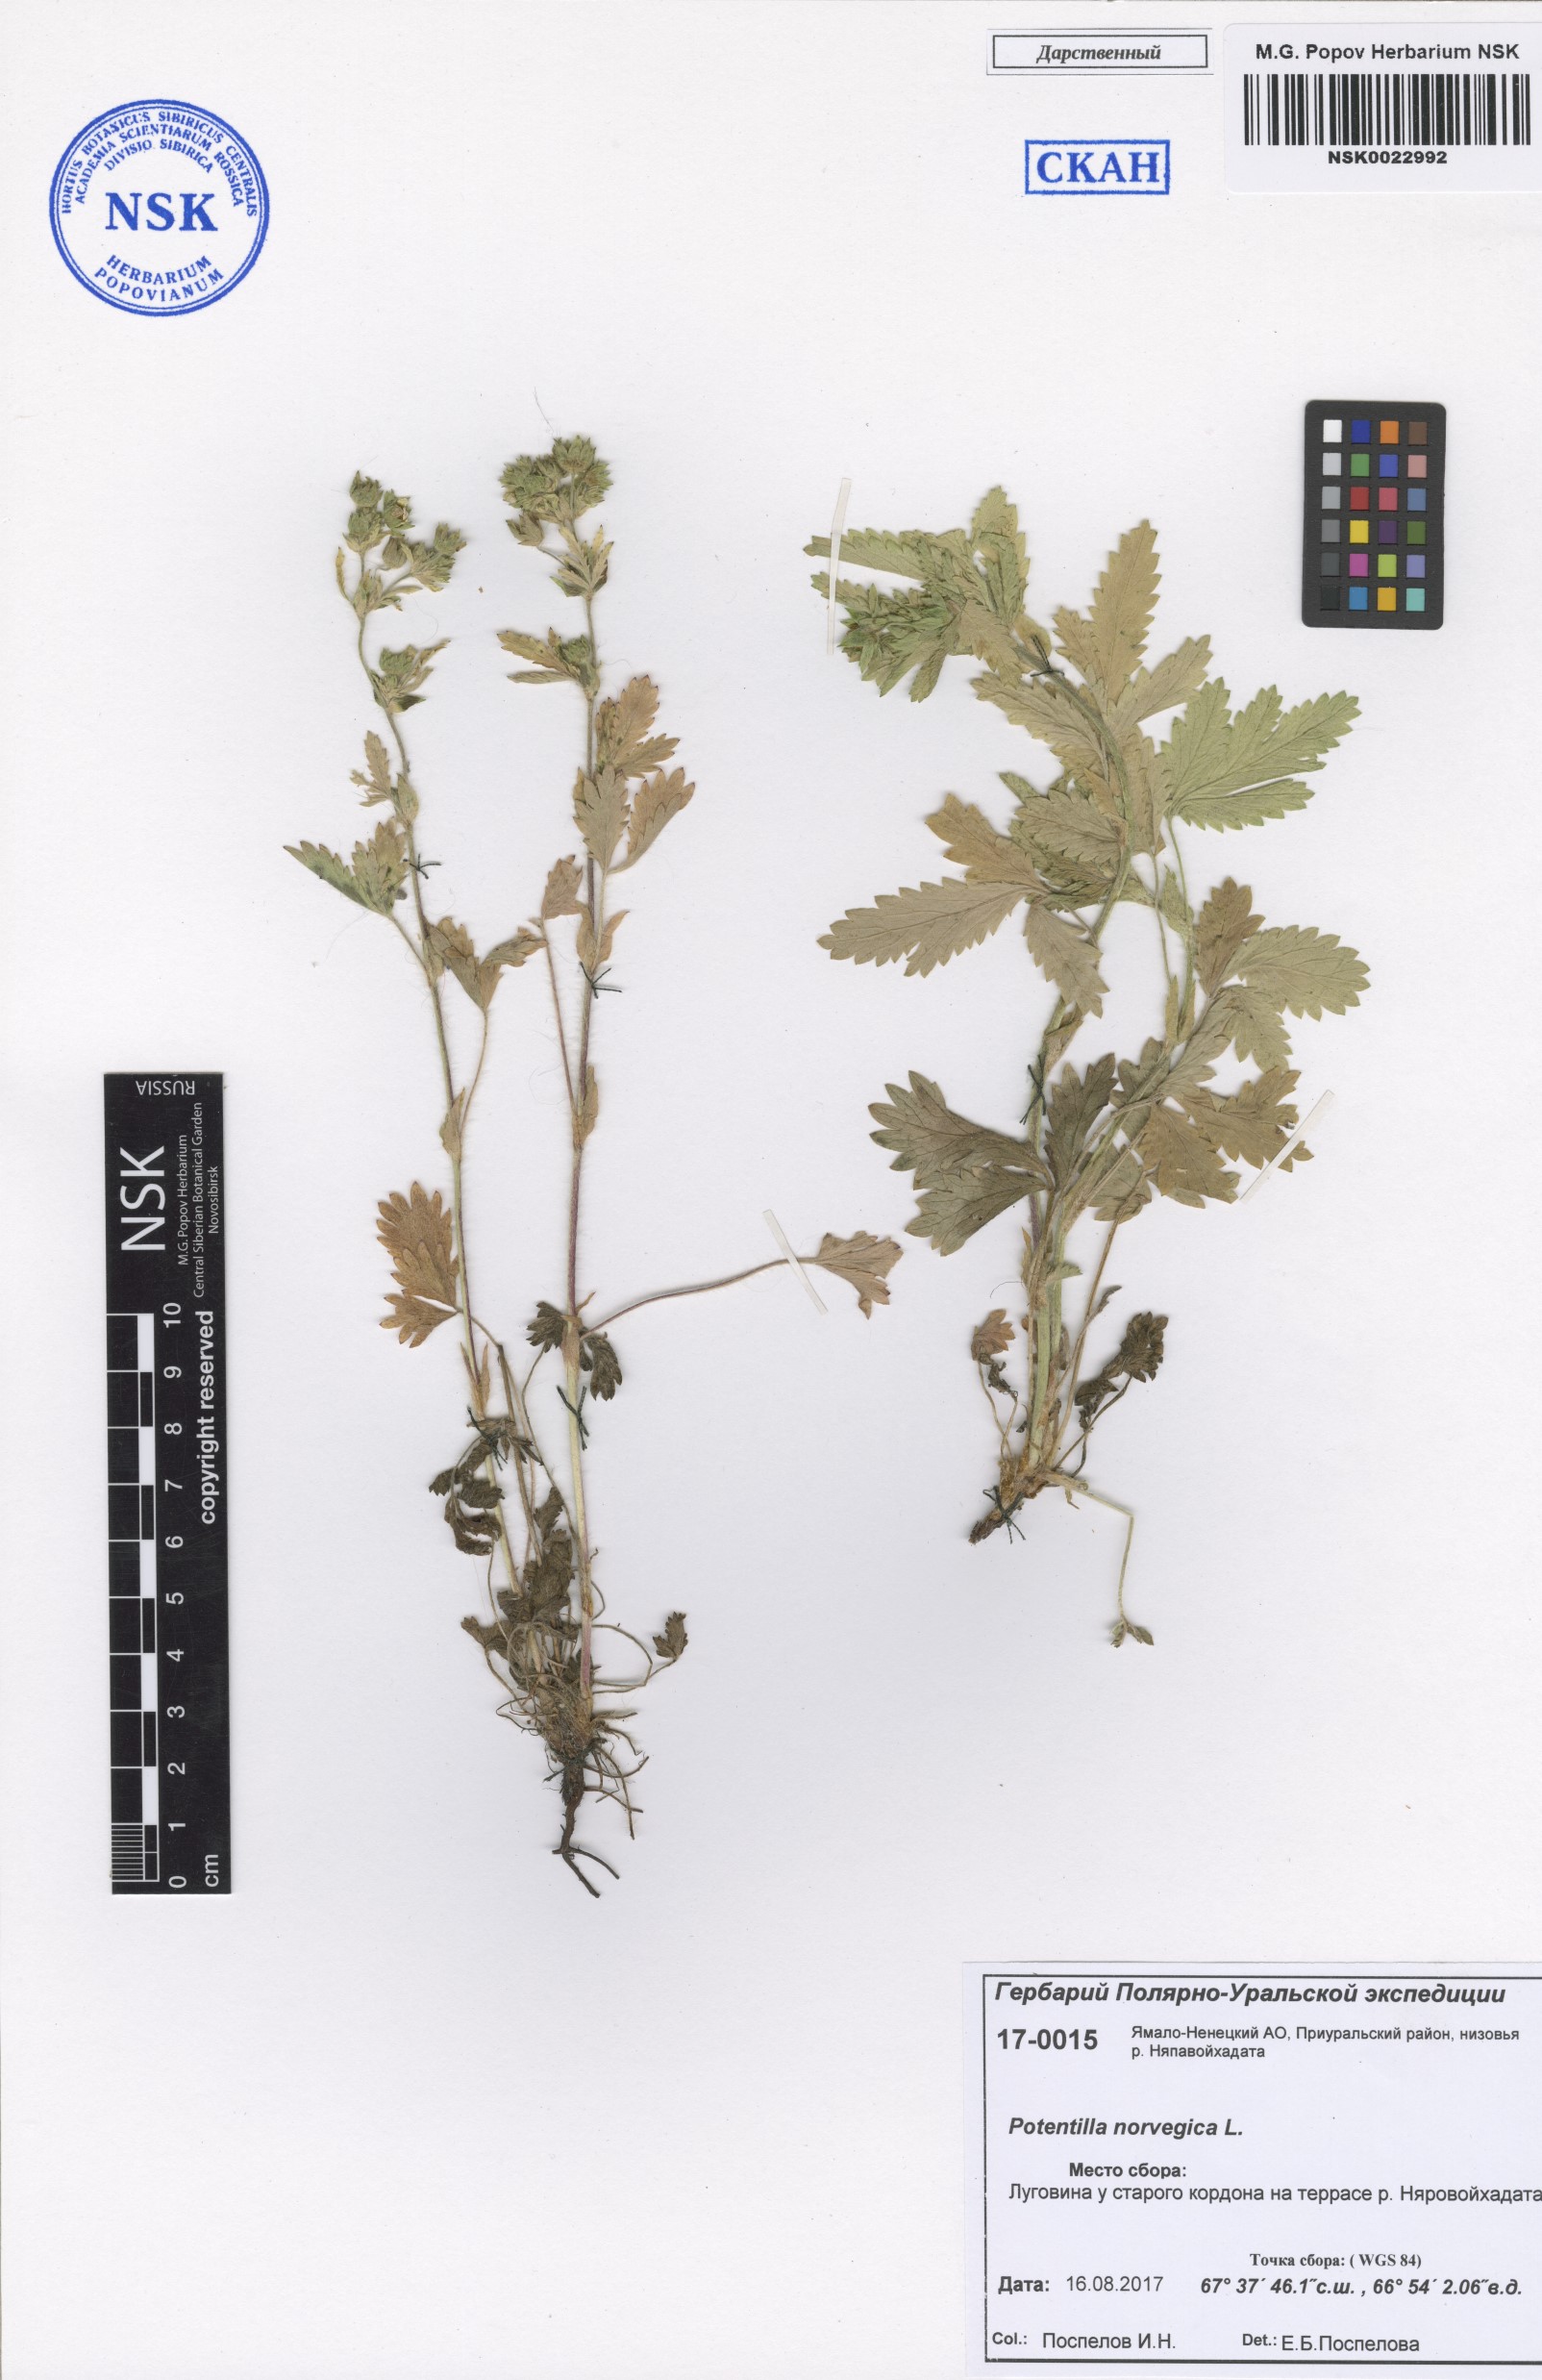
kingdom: Plantae
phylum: Tracheophyta
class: Magnoliopsida
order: Rosales
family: Rosaceae
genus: Potentilla
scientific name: Potentilla norvegica
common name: Ternate-leaved cinquefoil
